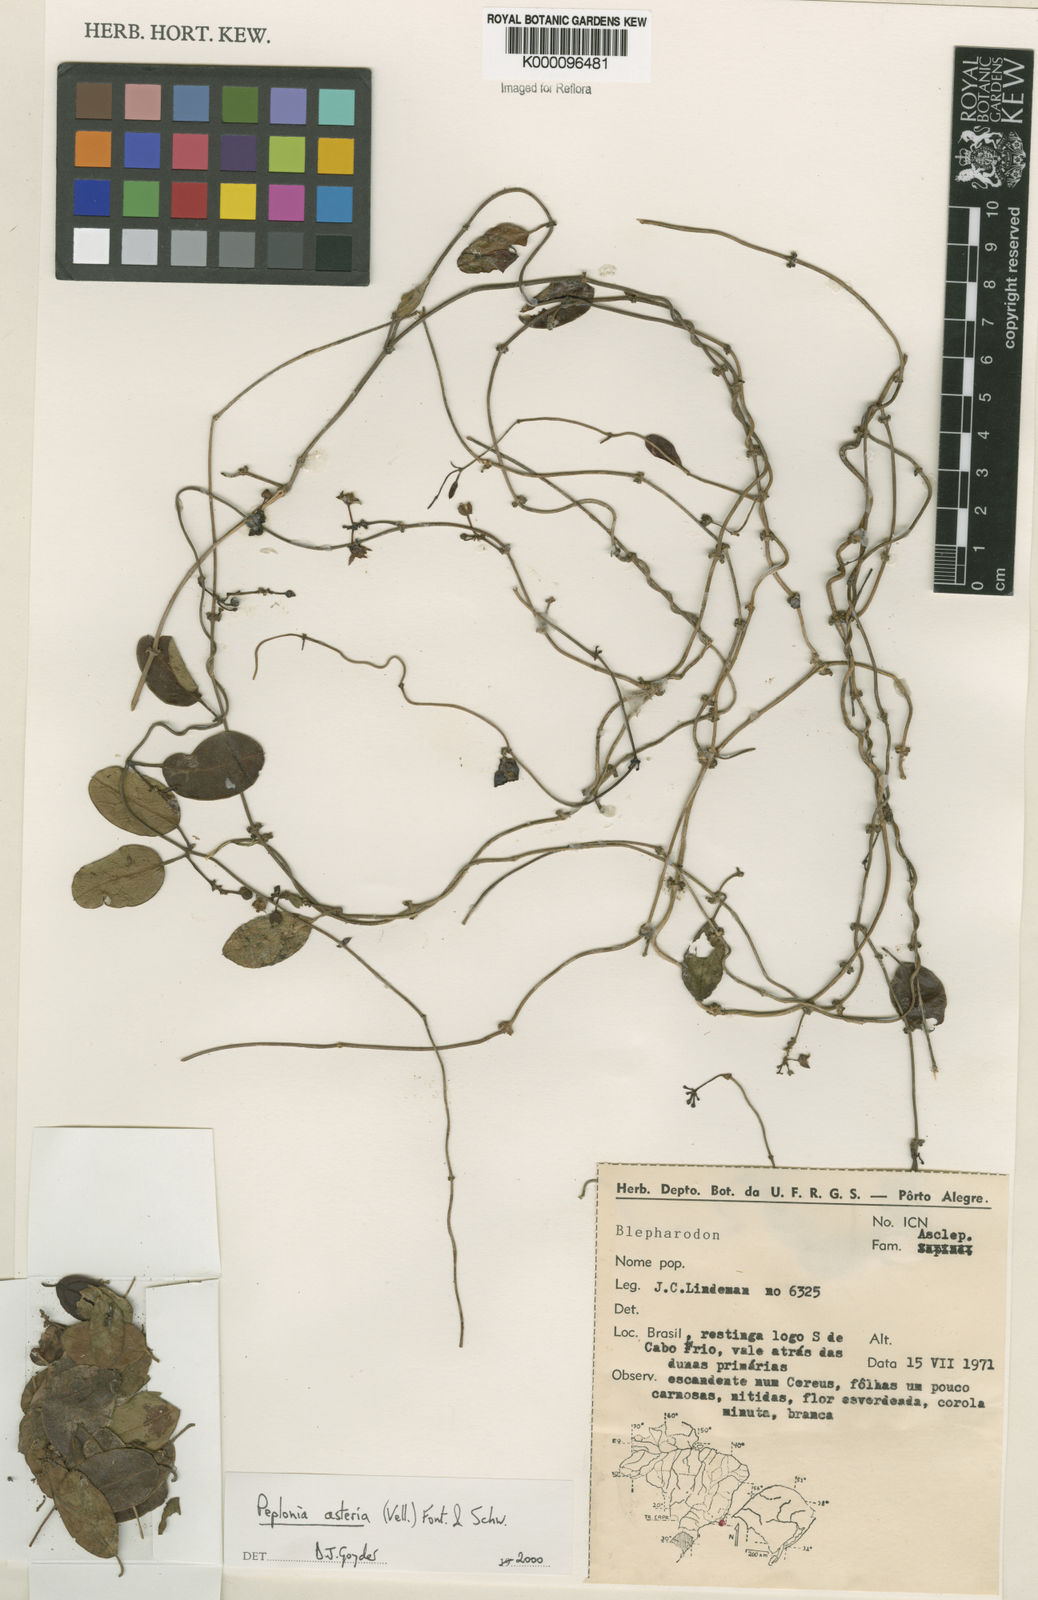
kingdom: Plantae
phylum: Tracheophyta
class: Magnoliopsida
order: Gentianales
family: Apocynaceae
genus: Peplonia
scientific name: Peplonia asteria
